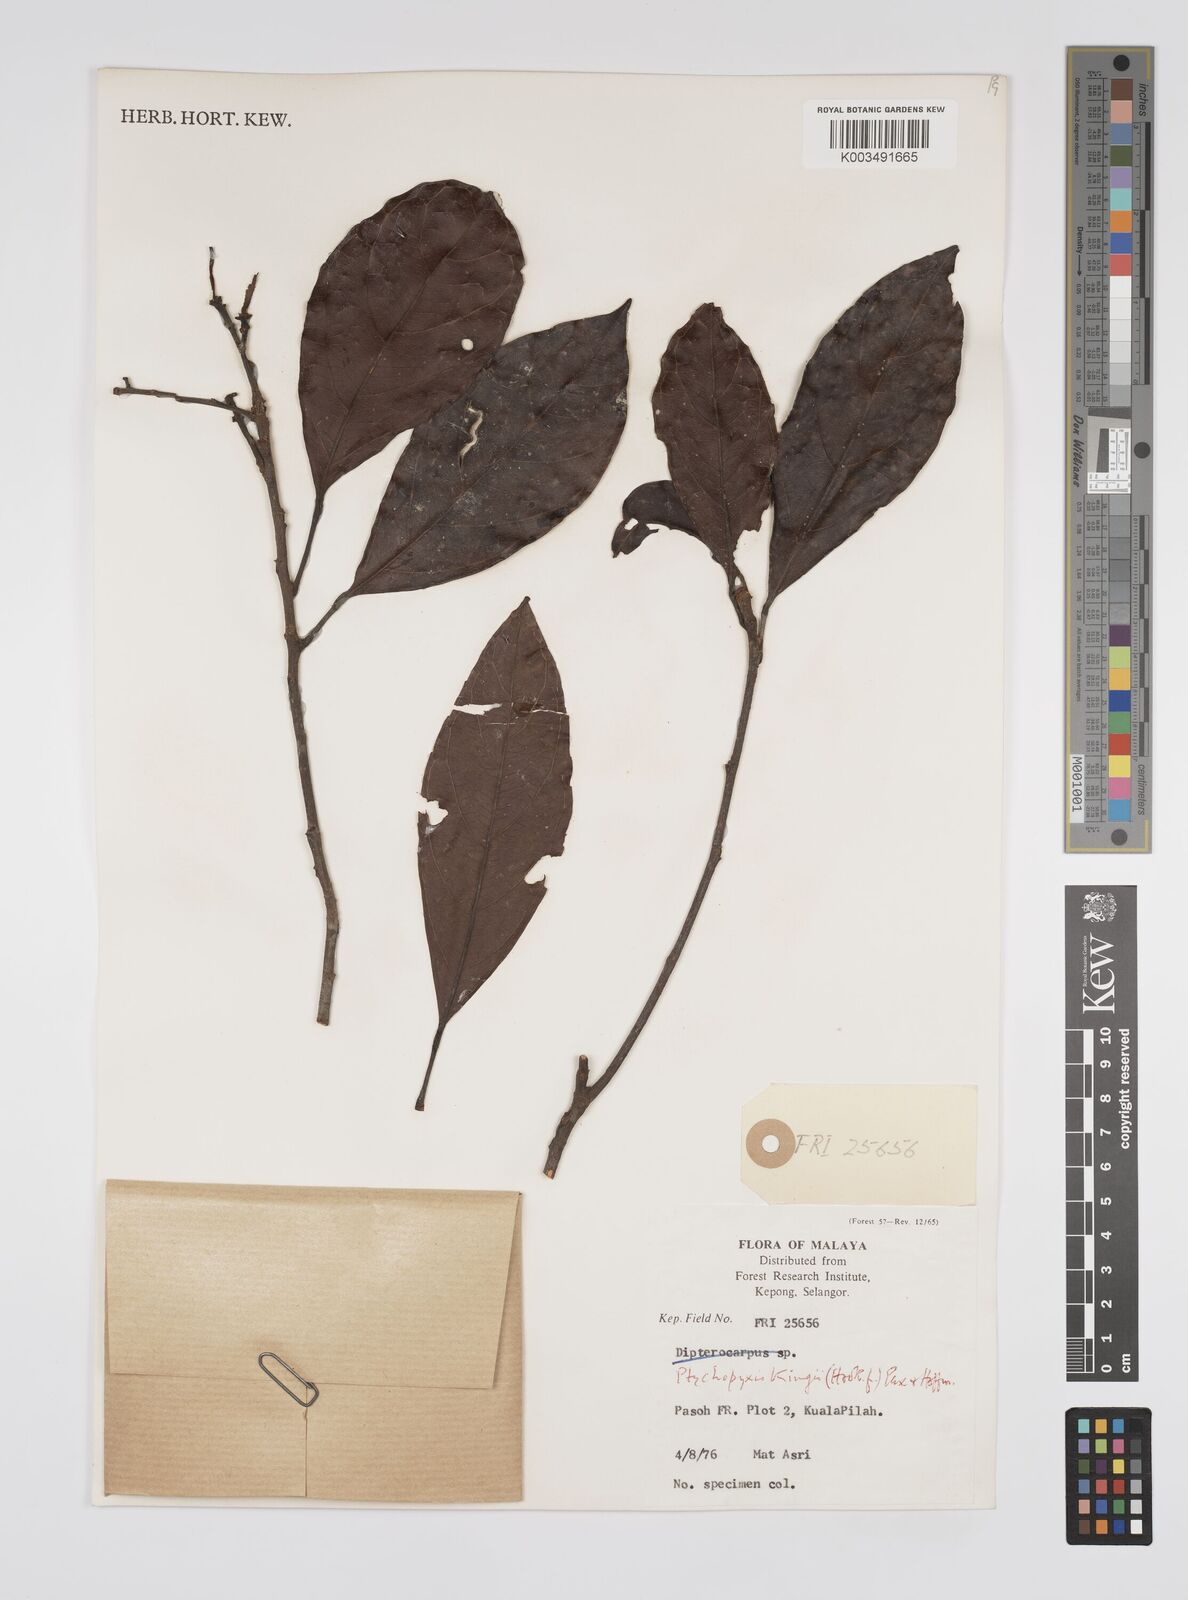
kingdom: Plantae
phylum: Tracheophyta
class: Magnoliopsida
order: Malpighiales
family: Euphorbiaceae
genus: Ptychopyxis
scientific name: Ptychopyxis caput-medusae
